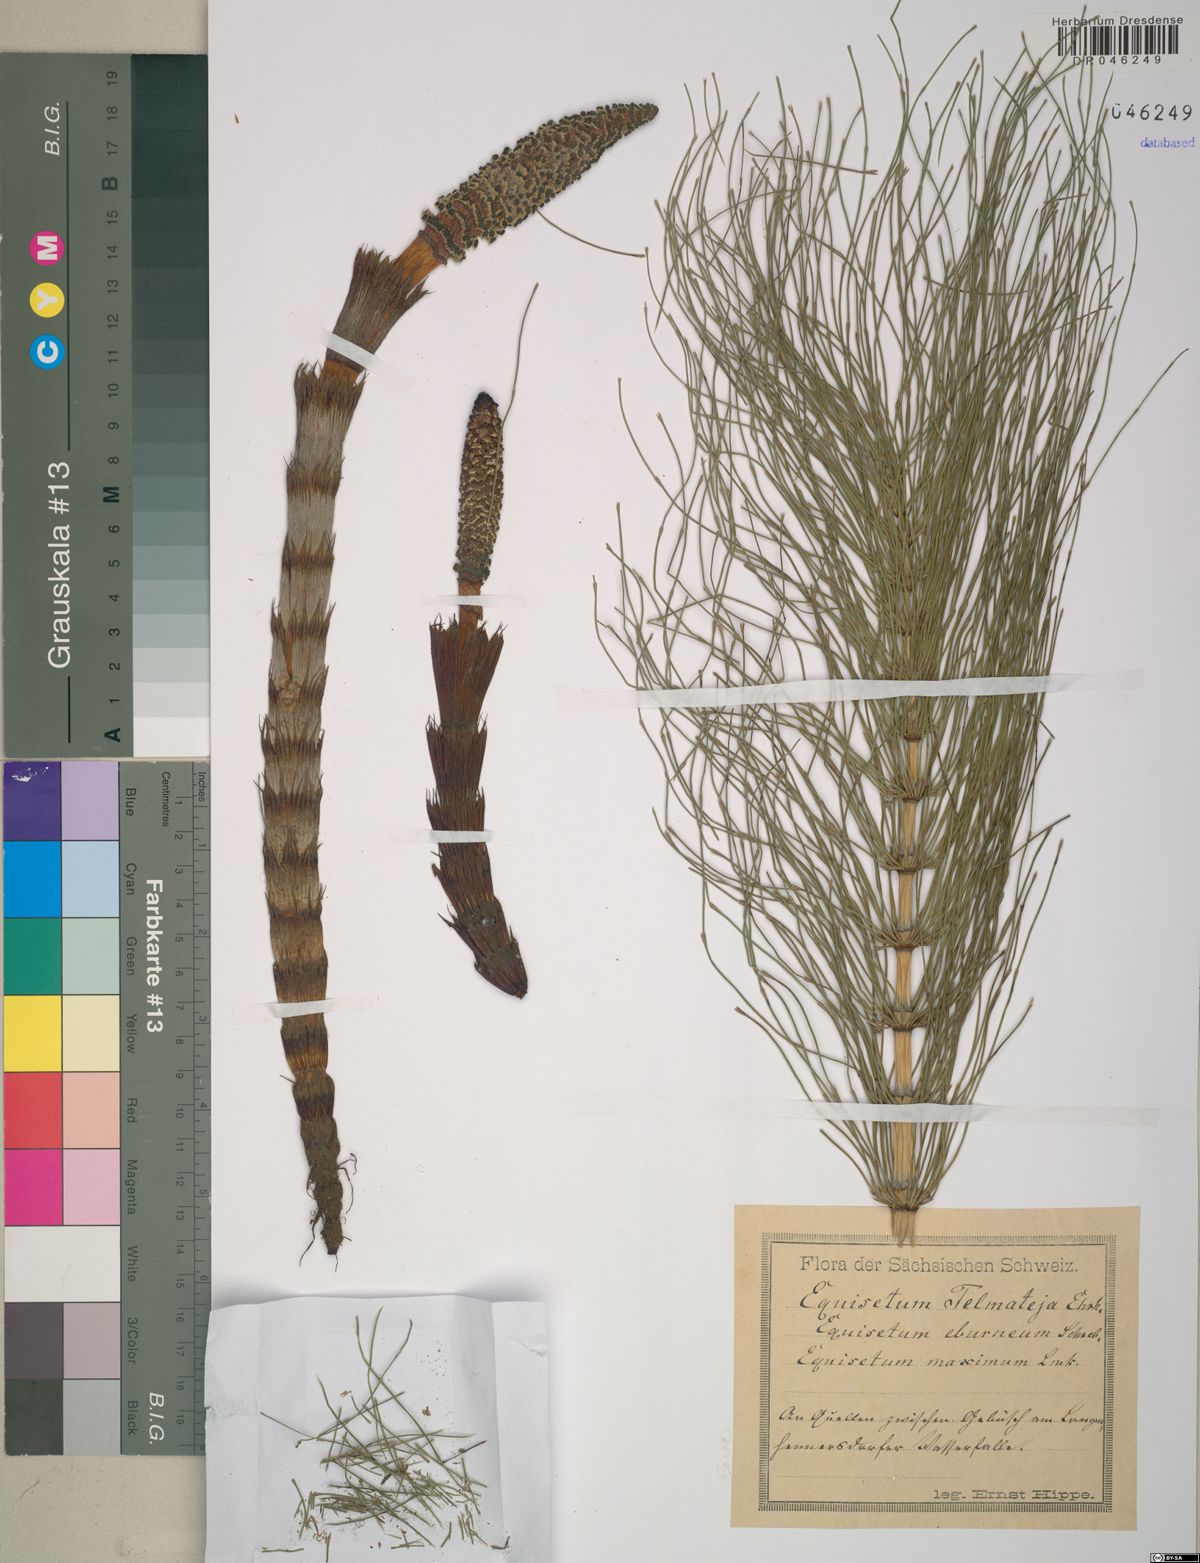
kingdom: Plantae
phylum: Tracheophyta
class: Polypodiopsida
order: Equisetales
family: Equisetaceae
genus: Equisetum
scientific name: Equisetum telmateia
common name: Great horsetail
